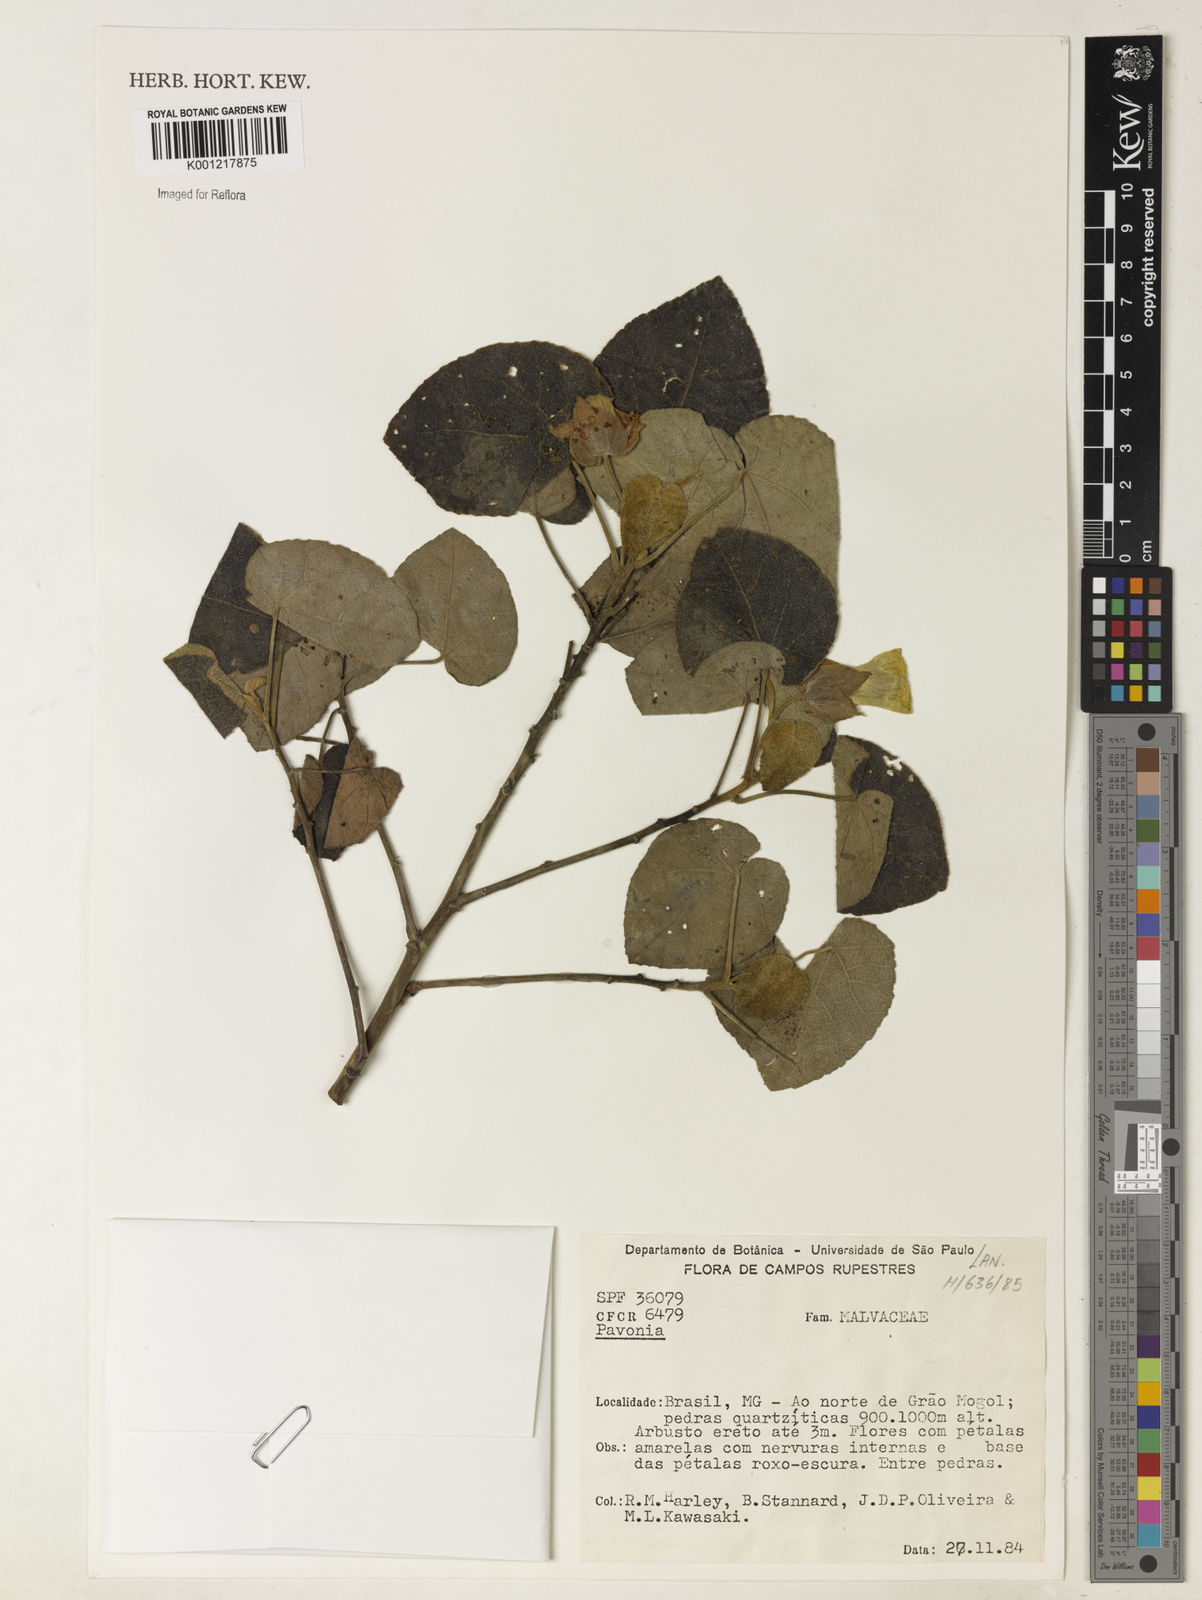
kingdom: Plantae
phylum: Tracheophyta
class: Magnoliopsida
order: Malvales
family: Malvaceae
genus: Pavonia
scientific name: Pavonia
